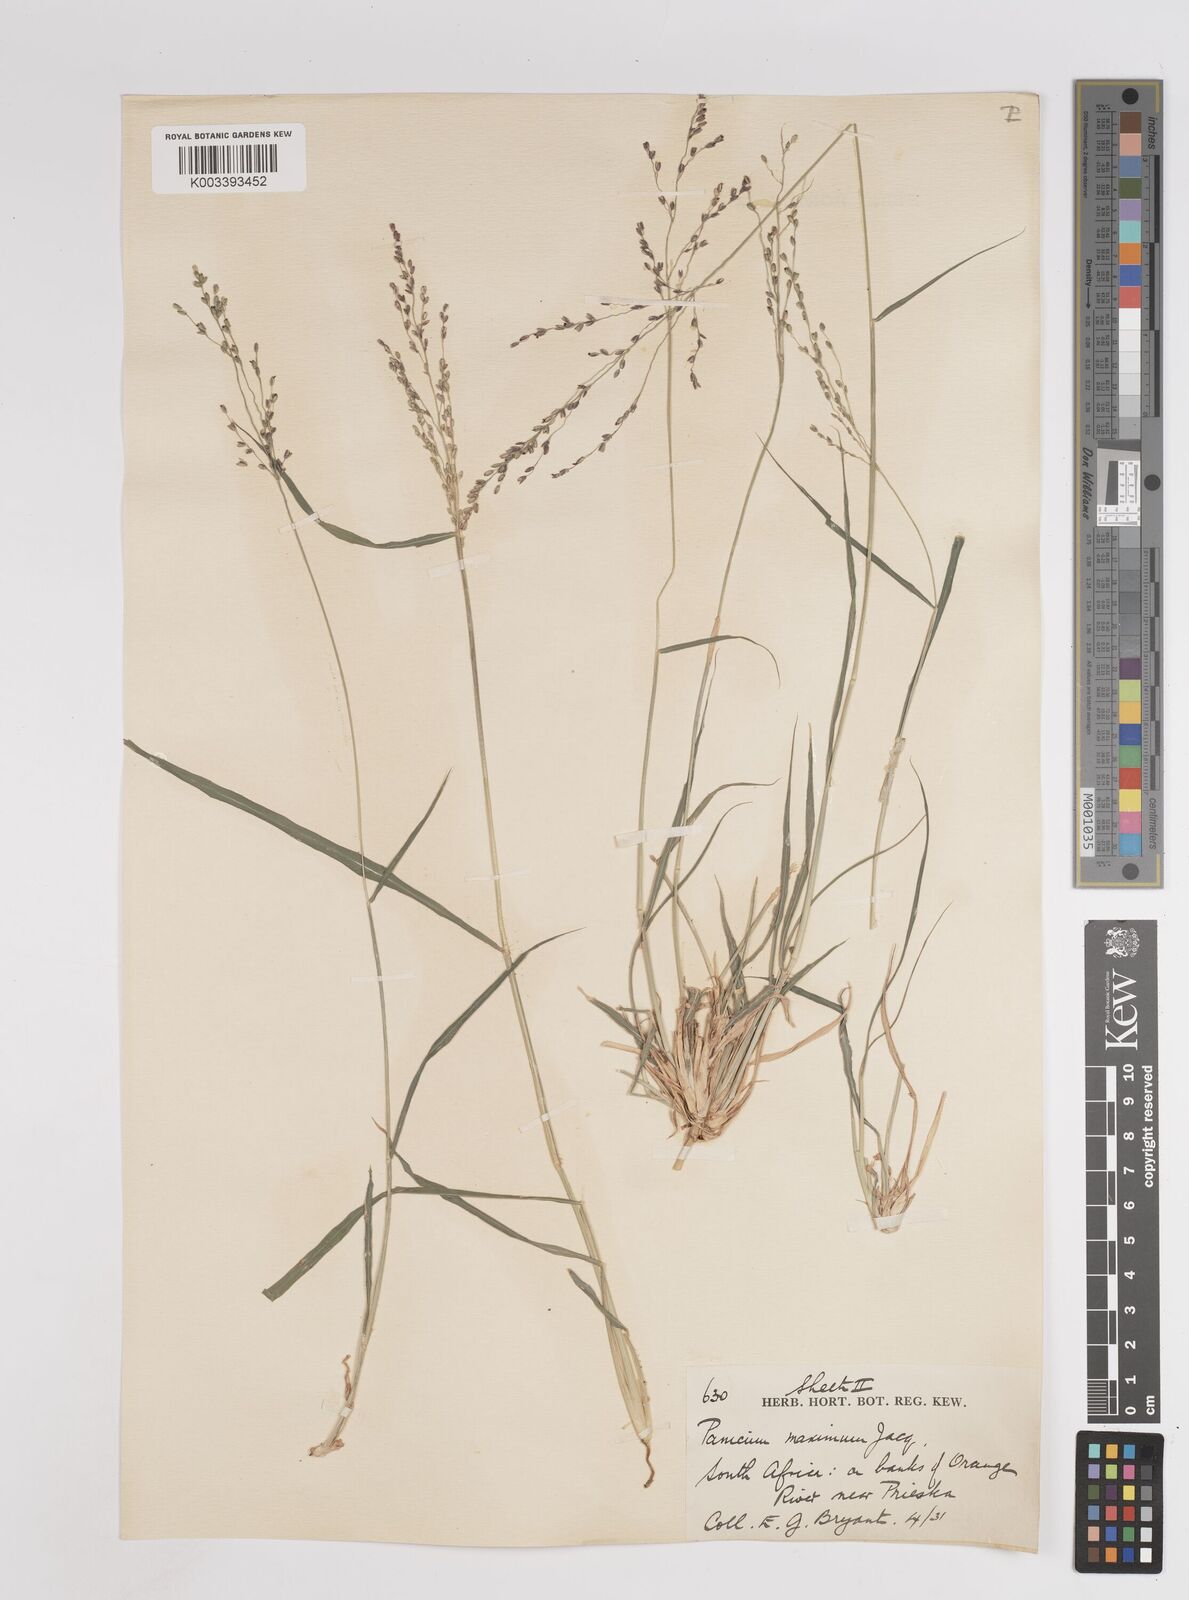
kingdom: Plantae
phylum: Tracheophyta
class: Liliopsida
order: Poales
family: Poaceae
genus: Megathyrsus
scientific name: Megathyrsus maximus
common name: Guineagrass
